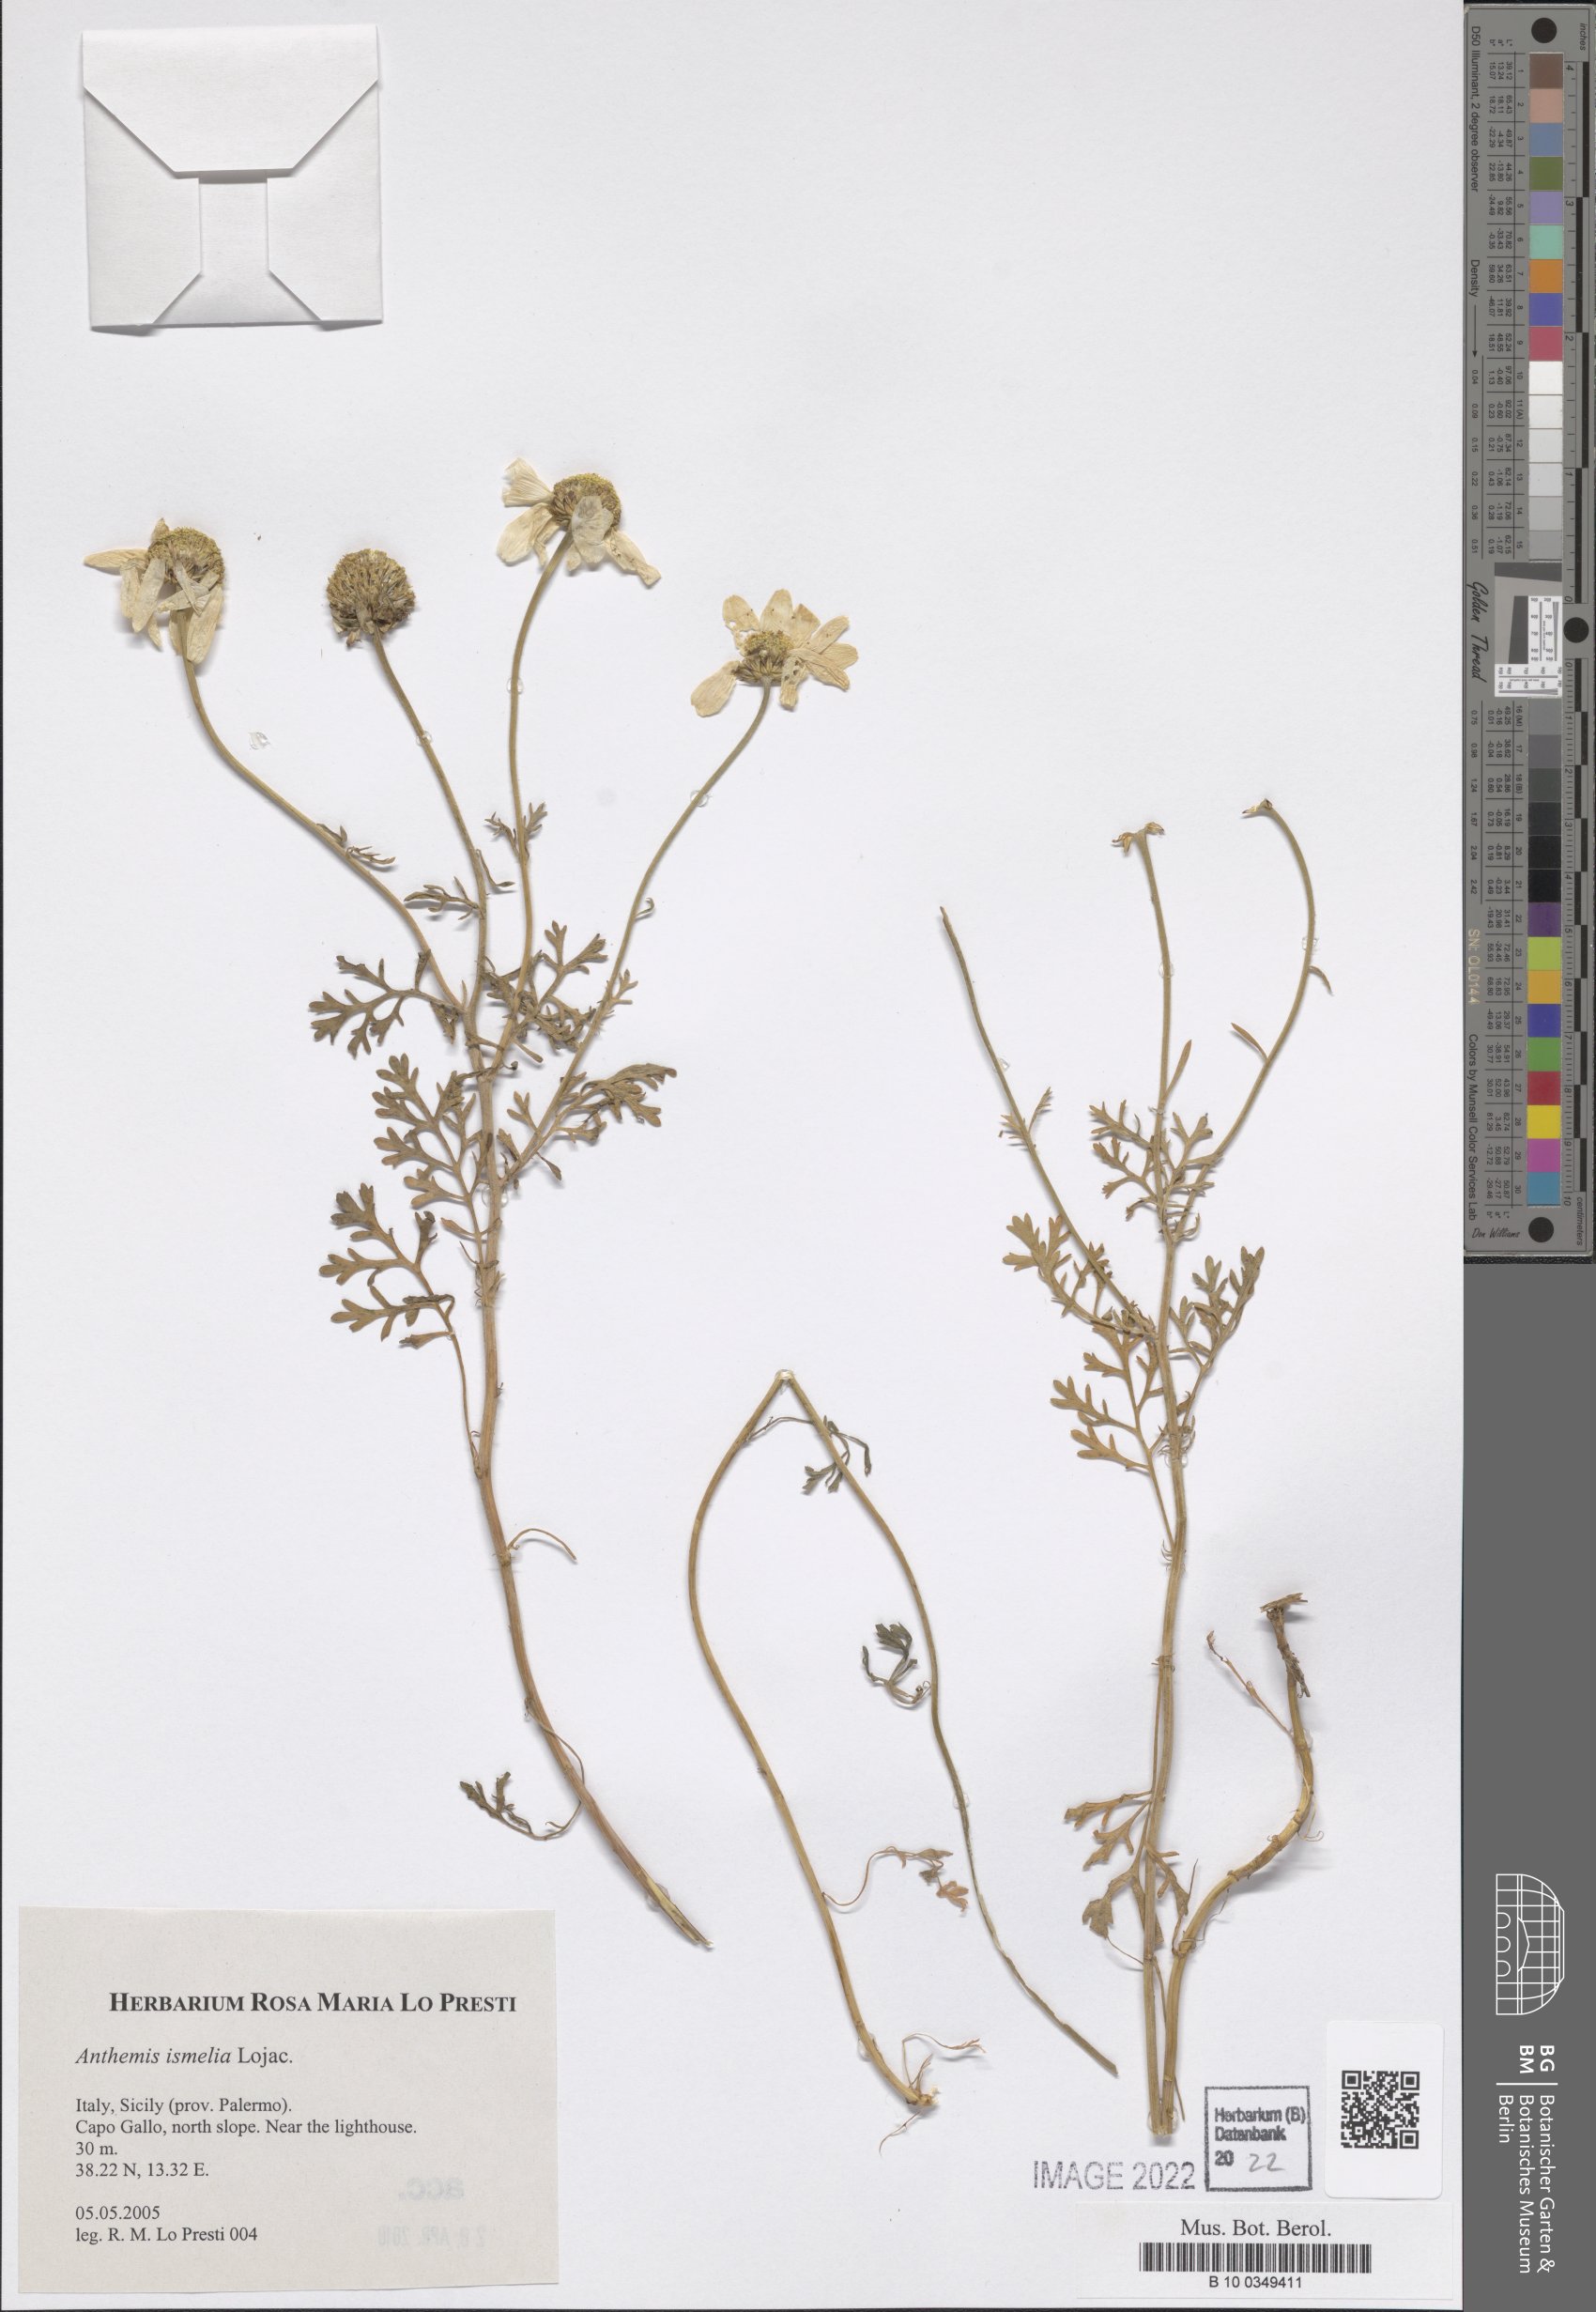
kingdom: Plantae
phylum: Tracheophyta
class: Magnoliopsida
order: Asterales
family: Asteraceae
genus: Anthemis
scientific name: Anthemis ismelia
